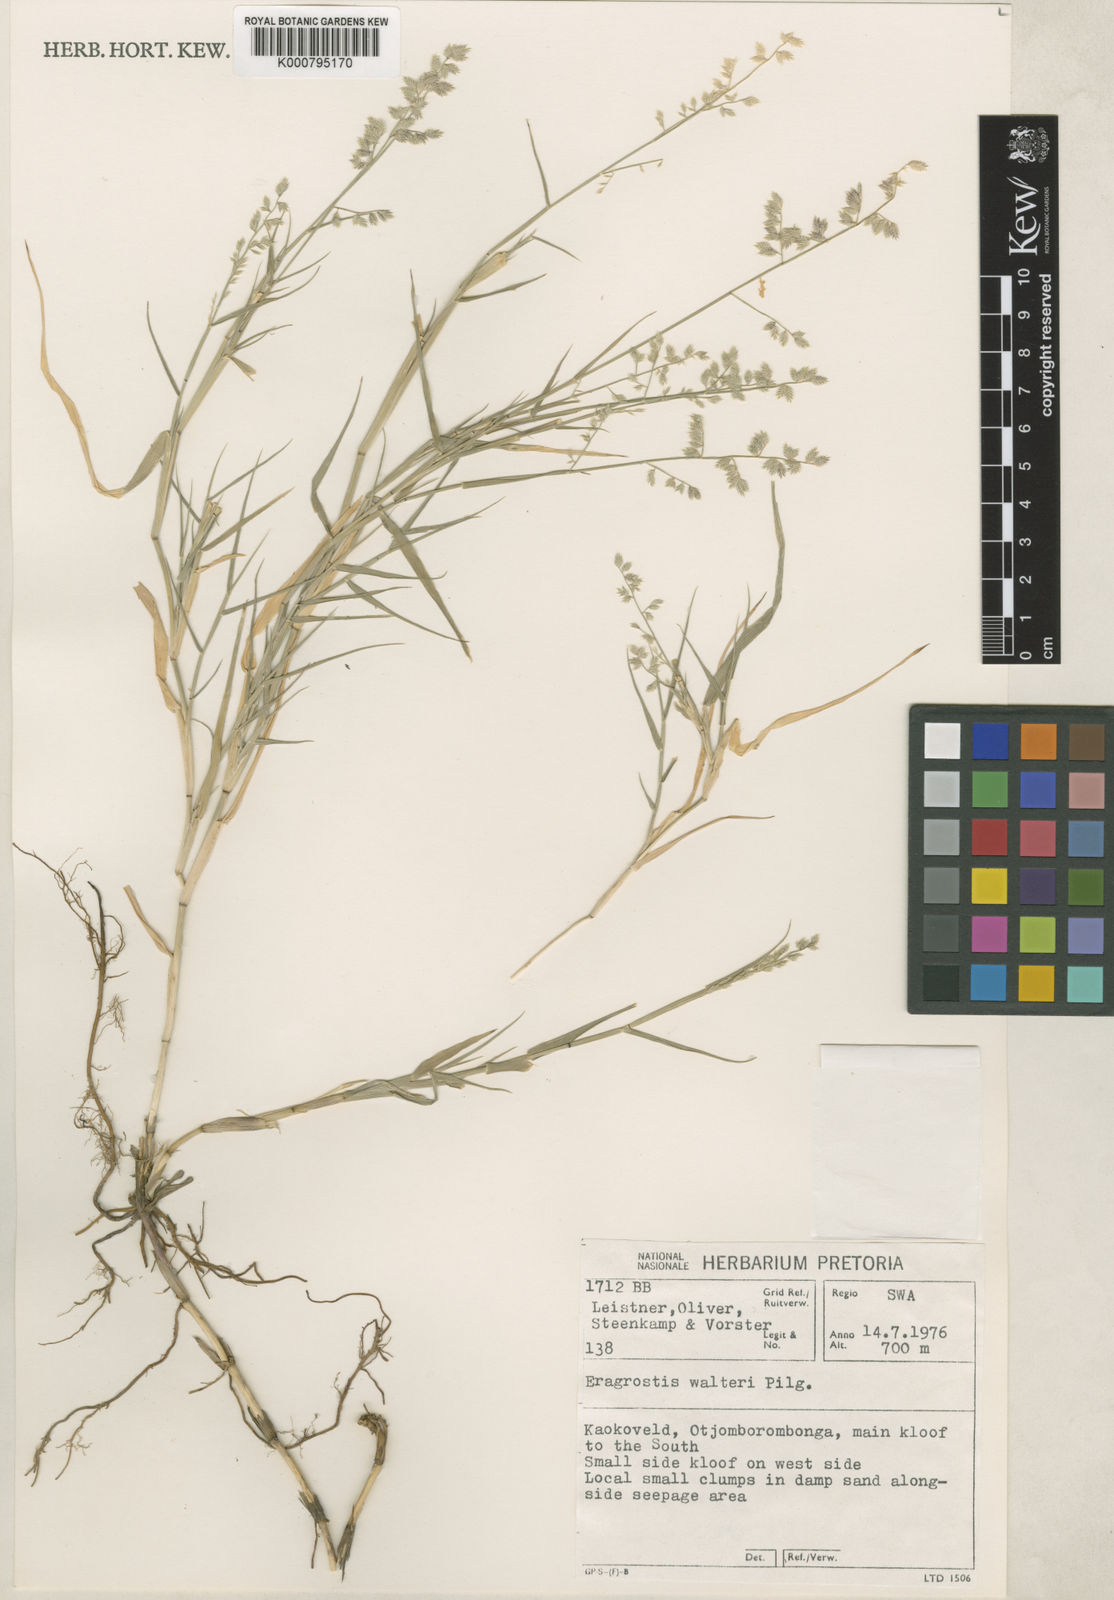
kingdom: Plantae
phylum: Tracheophyta
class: Liliopsida
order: Poales
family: Poaceae
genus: Pratochloa
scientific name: Pratochloa walteri
